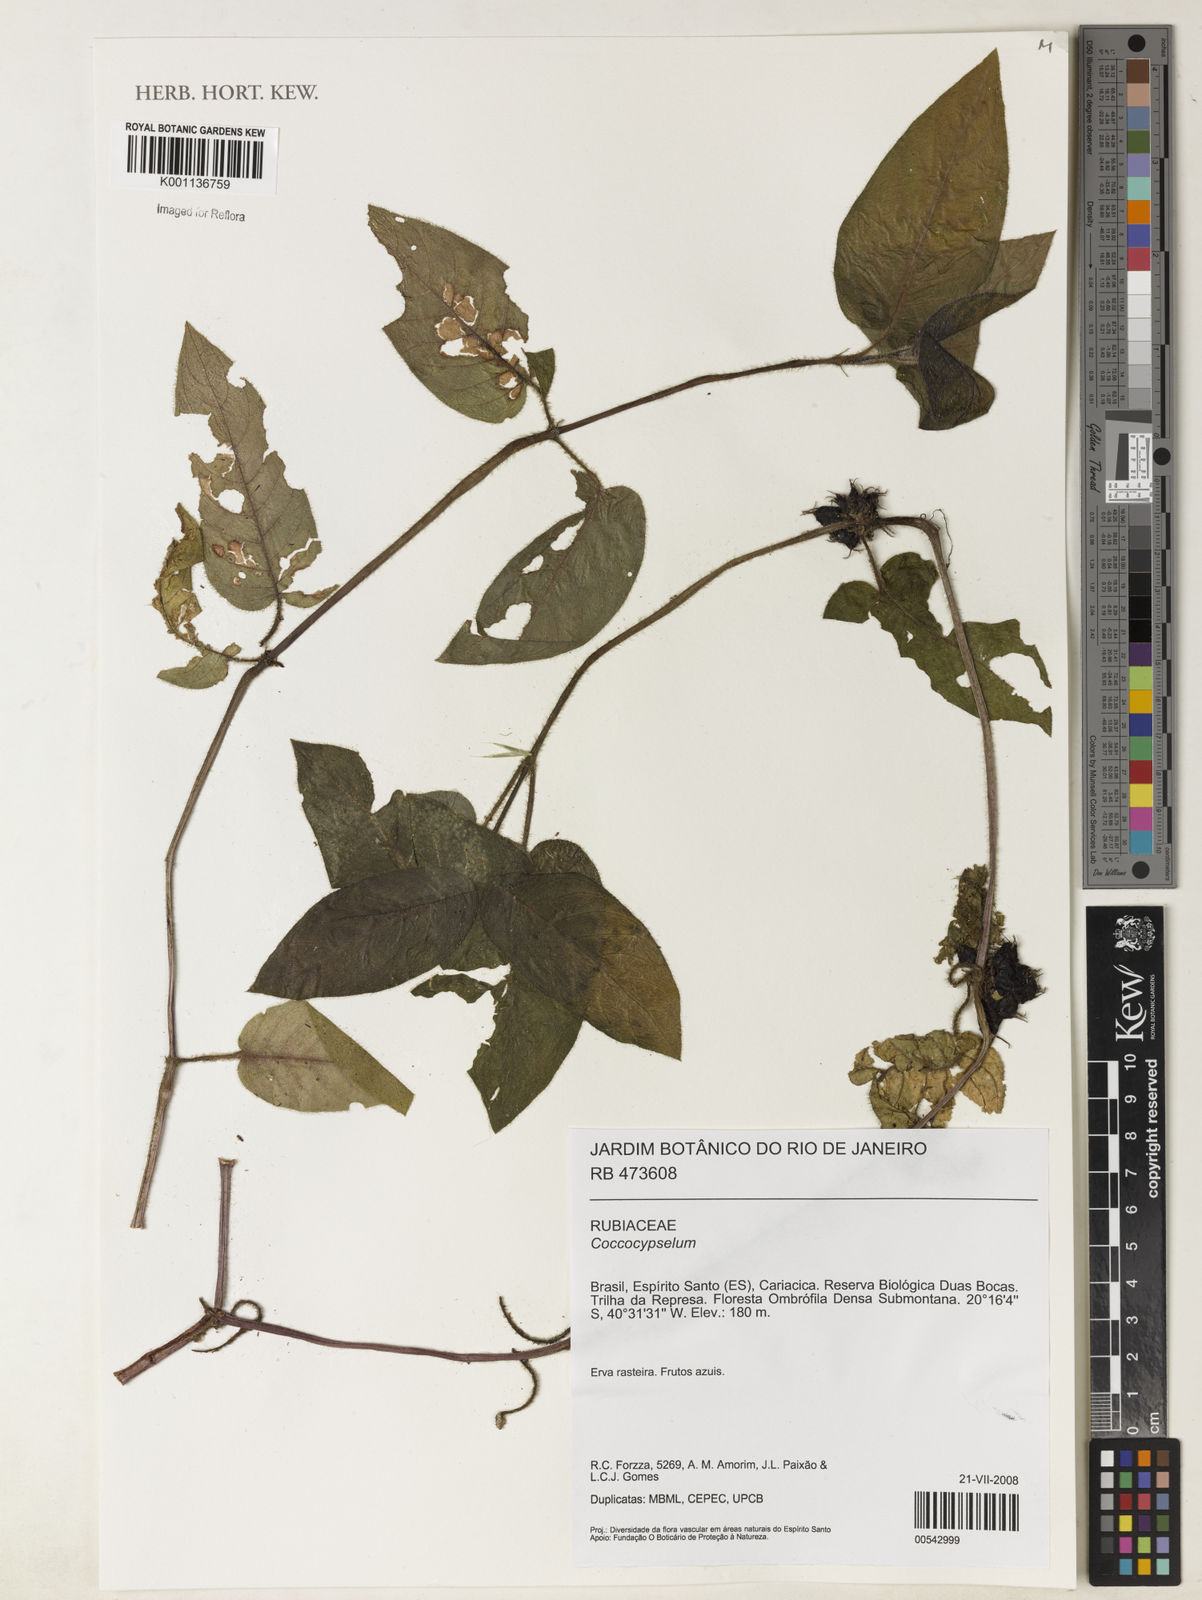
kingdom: Plantae
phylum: Tracheophyta
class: Magnoliopsida
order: Gentianales
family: Rubiaceae
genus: Coccocypselum
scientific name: Coccocypselum
